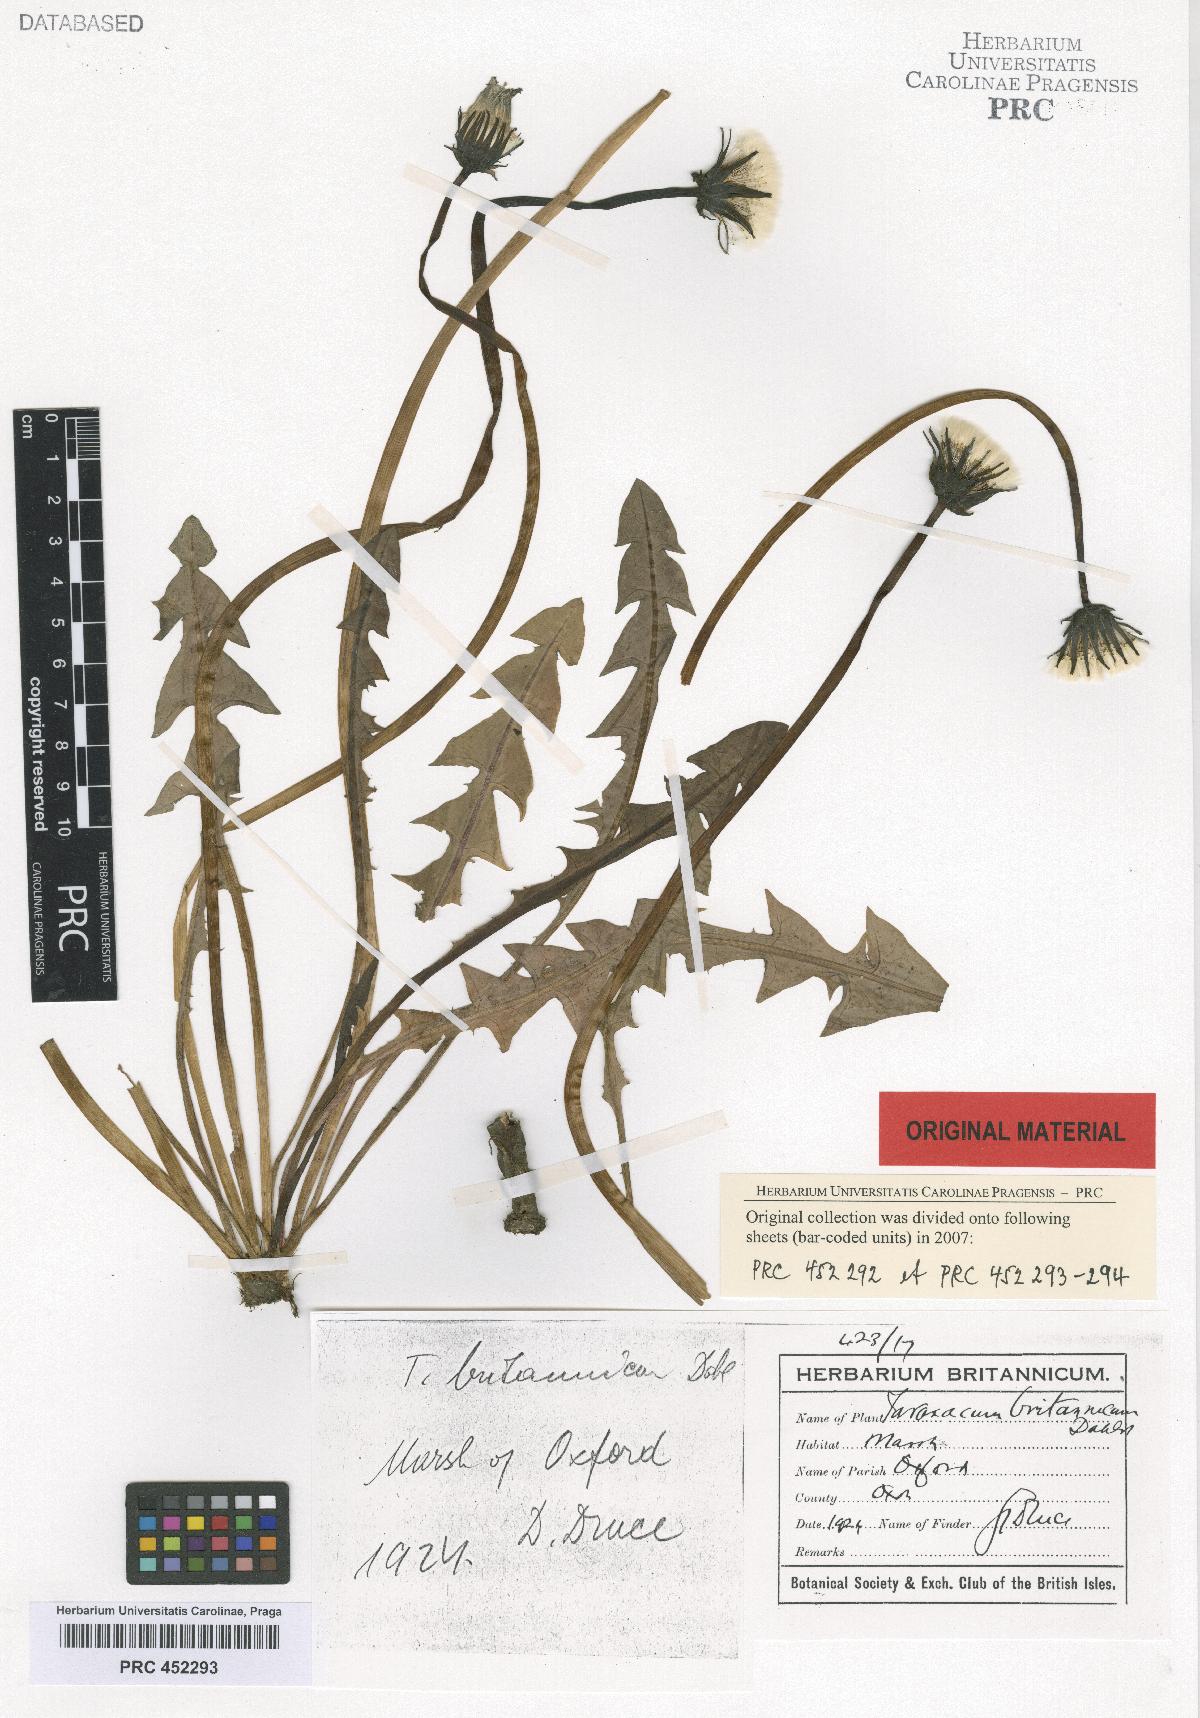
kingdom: Plantae
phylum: Tracheophyta
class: Magnoliopsida
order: Asterales
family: Asteraceae
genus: Taraxacum
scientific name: Taraxacum britannicum
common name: British dandelion
